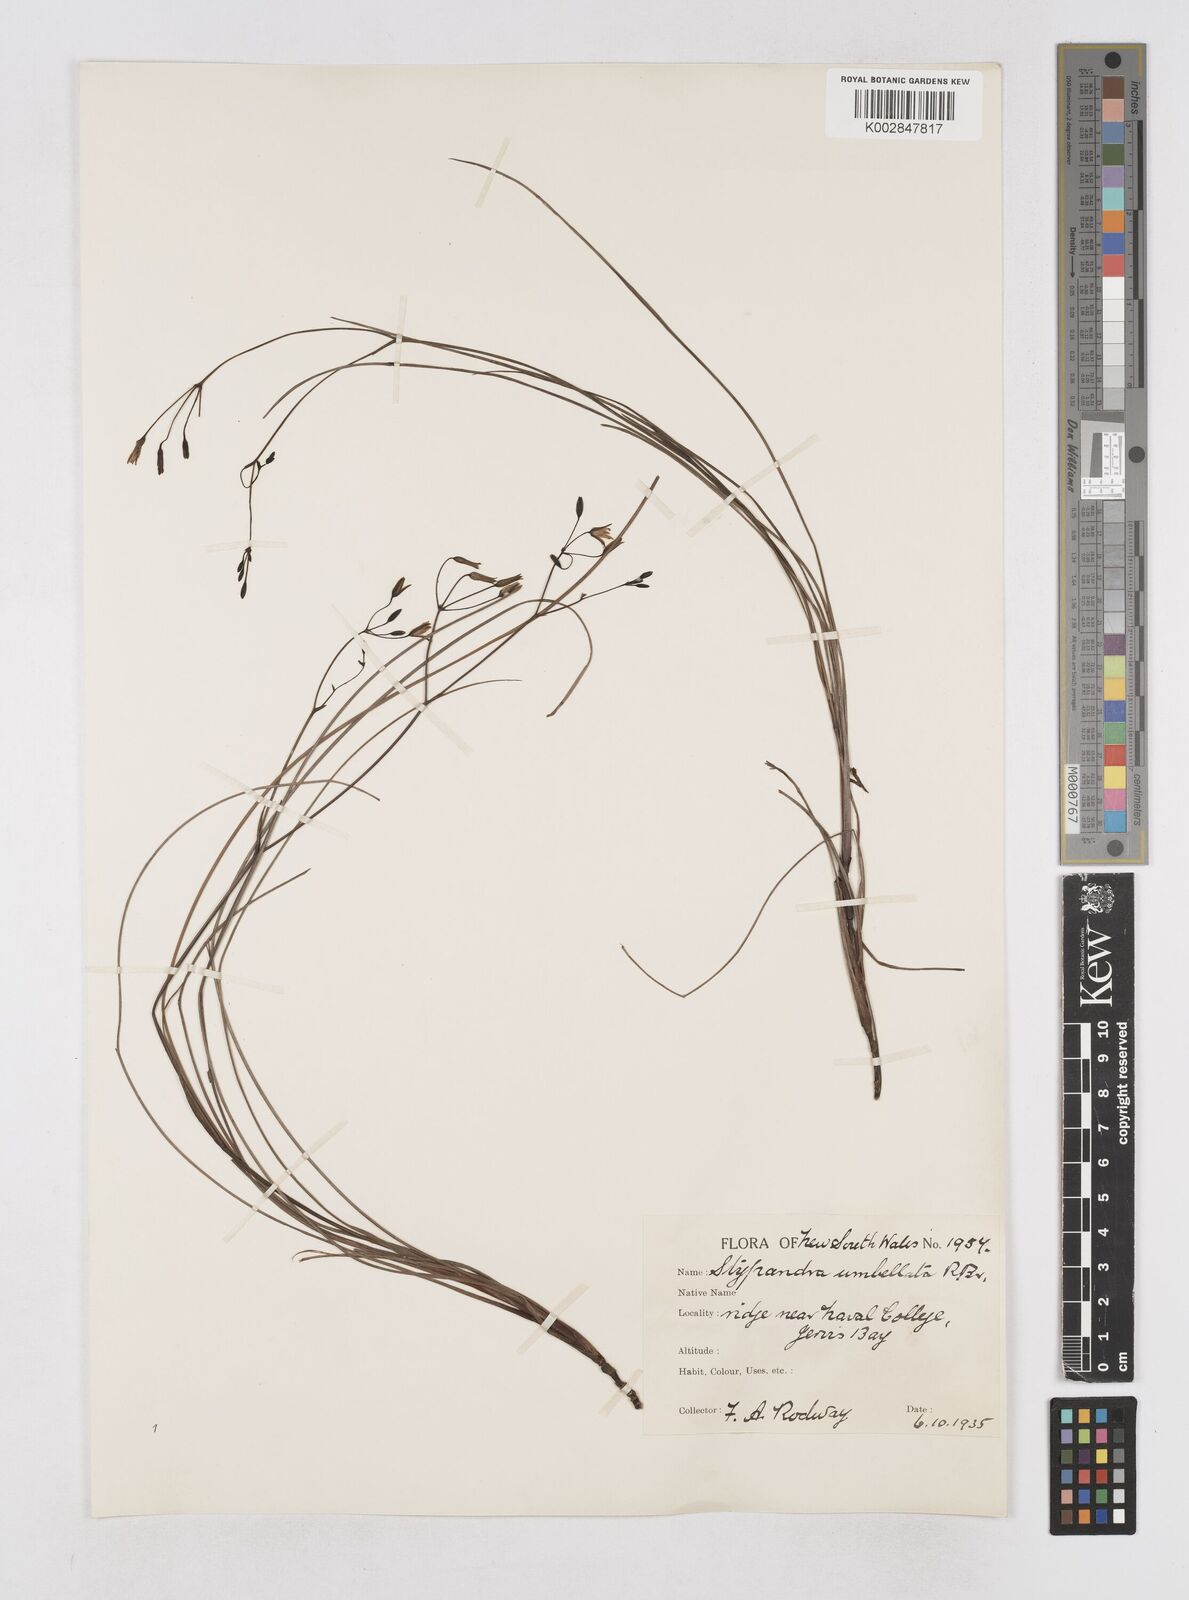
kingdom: Plantae
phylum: Tracheophyta
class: Liliopsida
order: Asparagales
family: Asphodelaceae
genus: Thelionema
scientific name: Thelionema umbellatum
